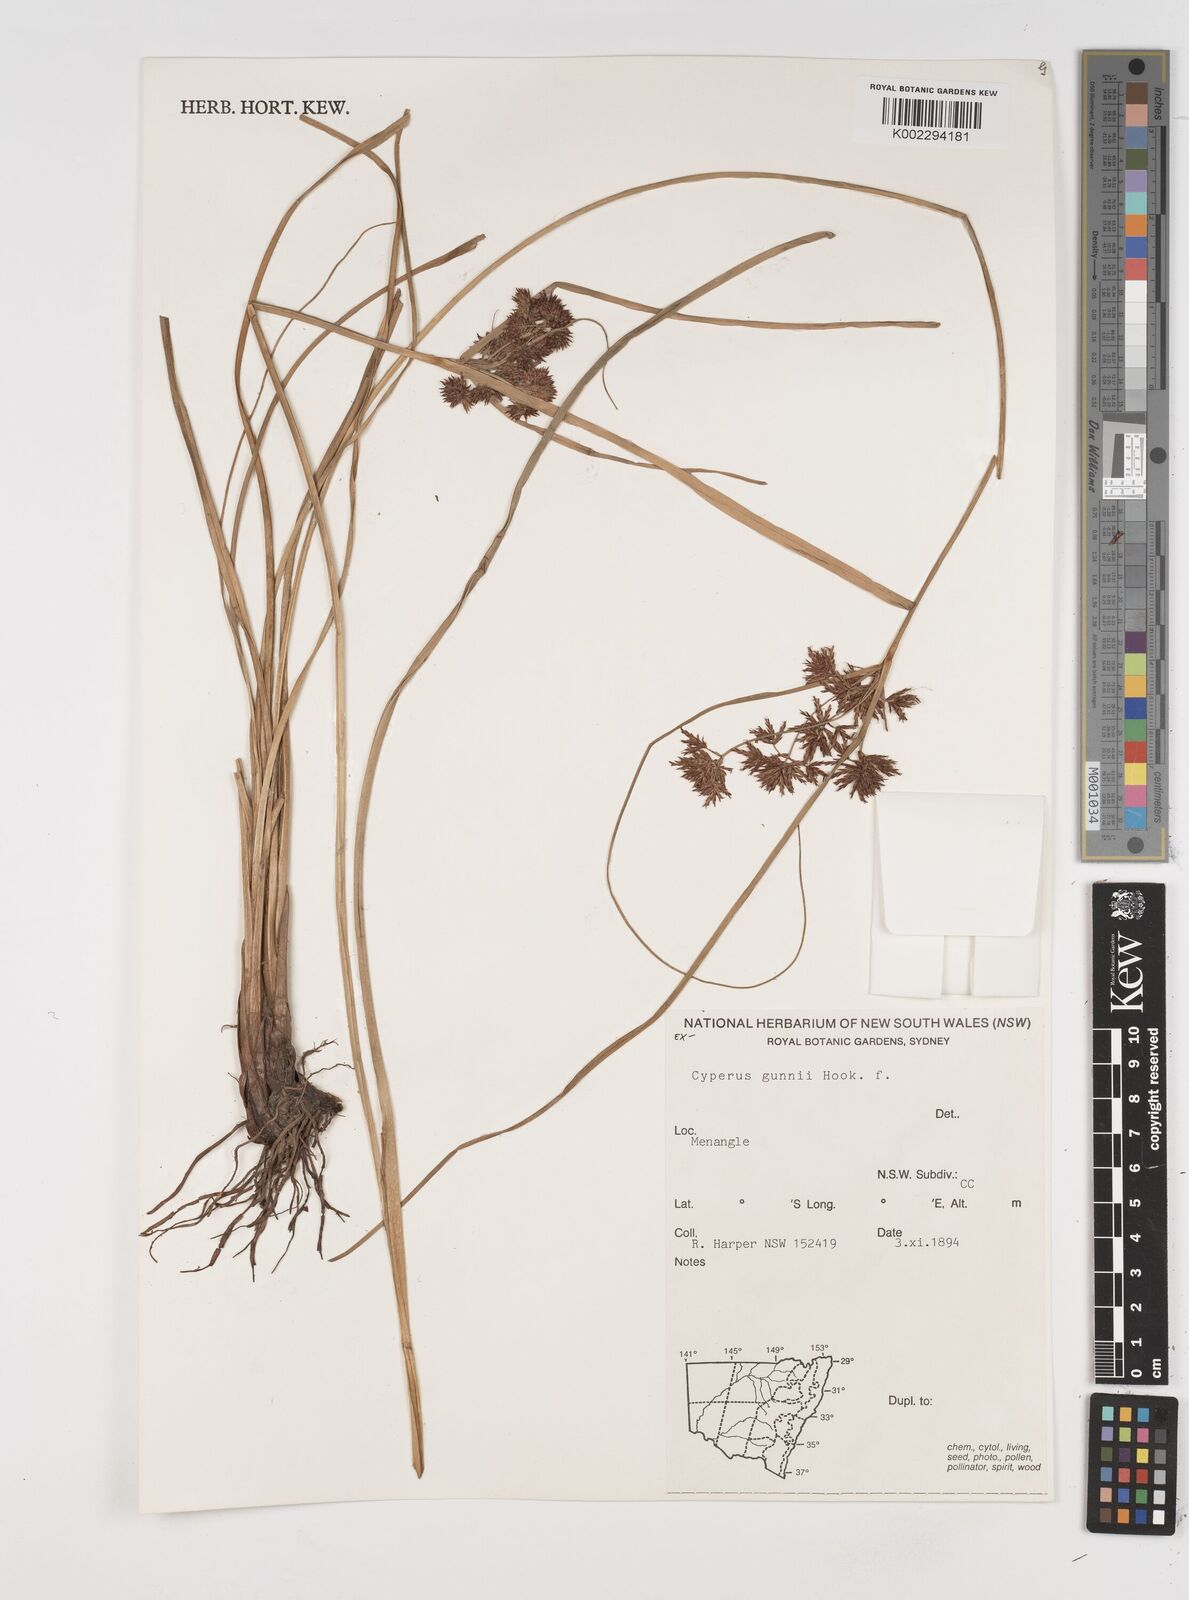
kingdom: Plantae
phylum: Tracheophyta
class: Liliopsida
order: Poales
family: Cyperaceae
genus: Cyperus
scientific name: Cyperus gunnii
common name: Flecked flat-sedge
